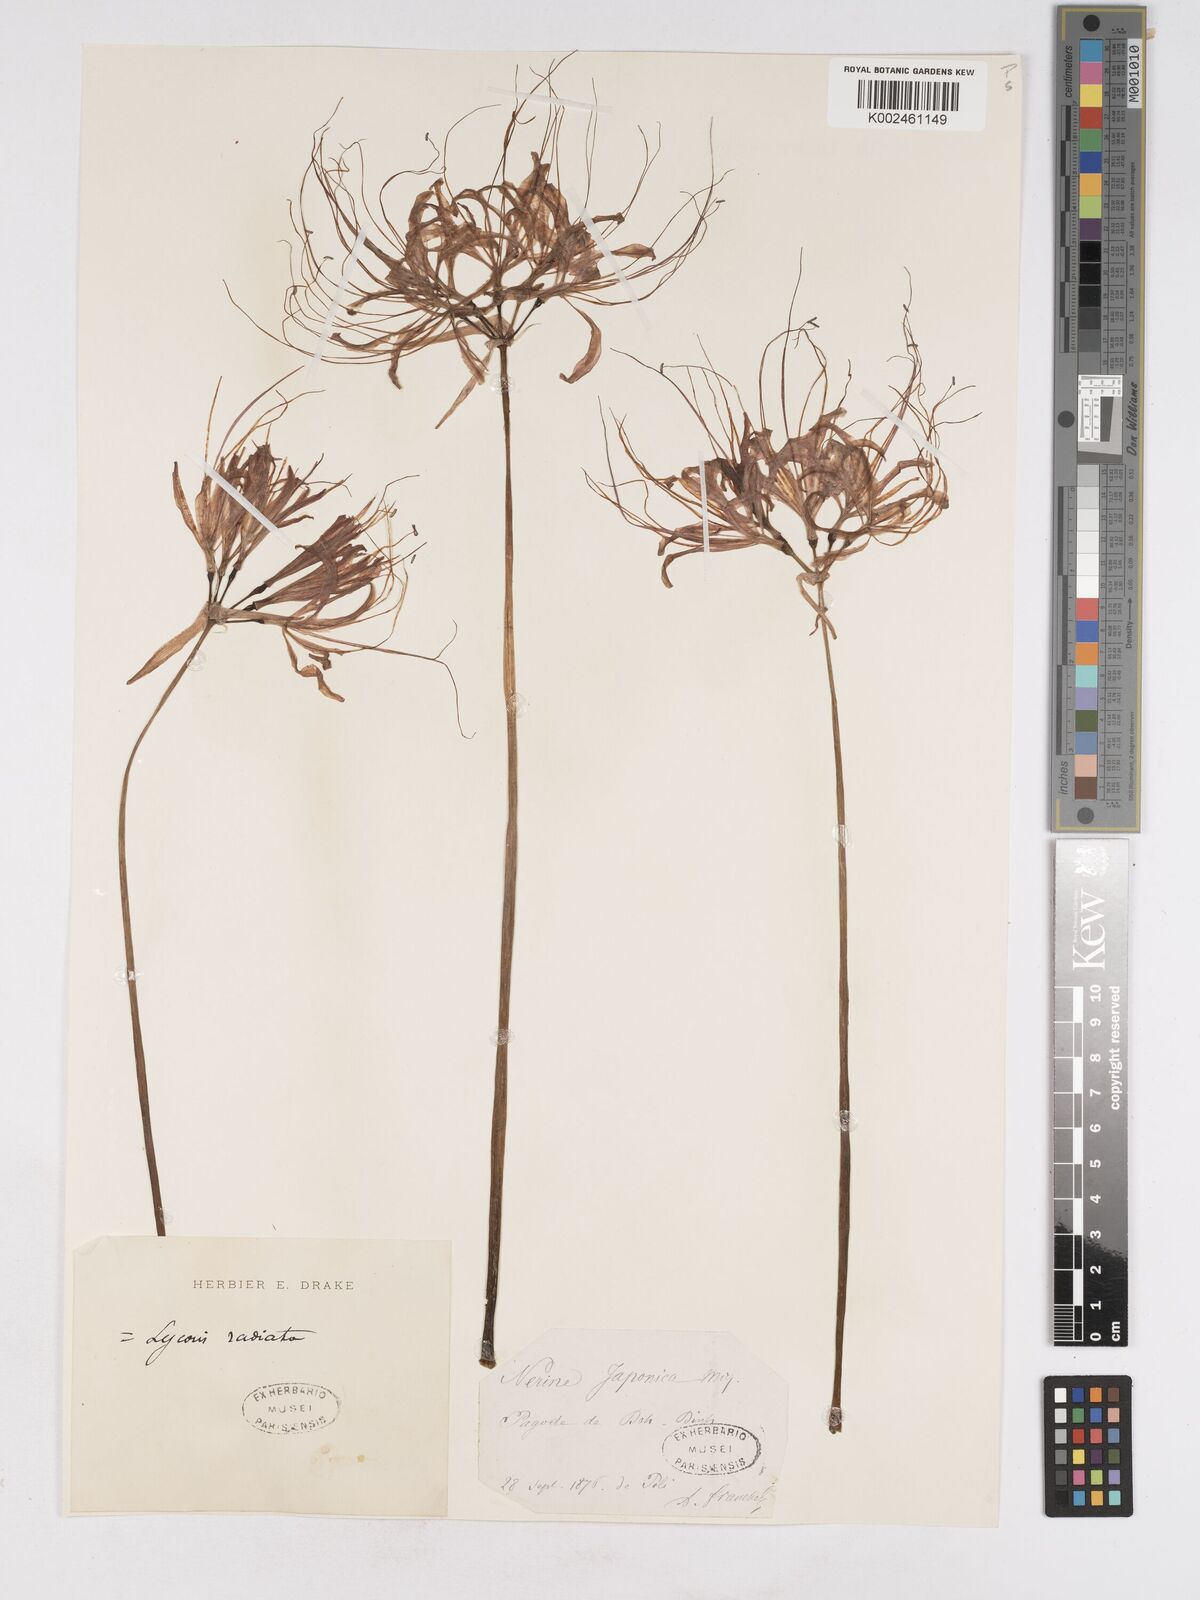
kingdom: Plantae
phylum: Tracheophyta
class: Liliopsida
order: Asparagales
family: Amaryllidaceae
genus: Lycoris
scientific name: Lycoris radiata
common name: Red spider lily
